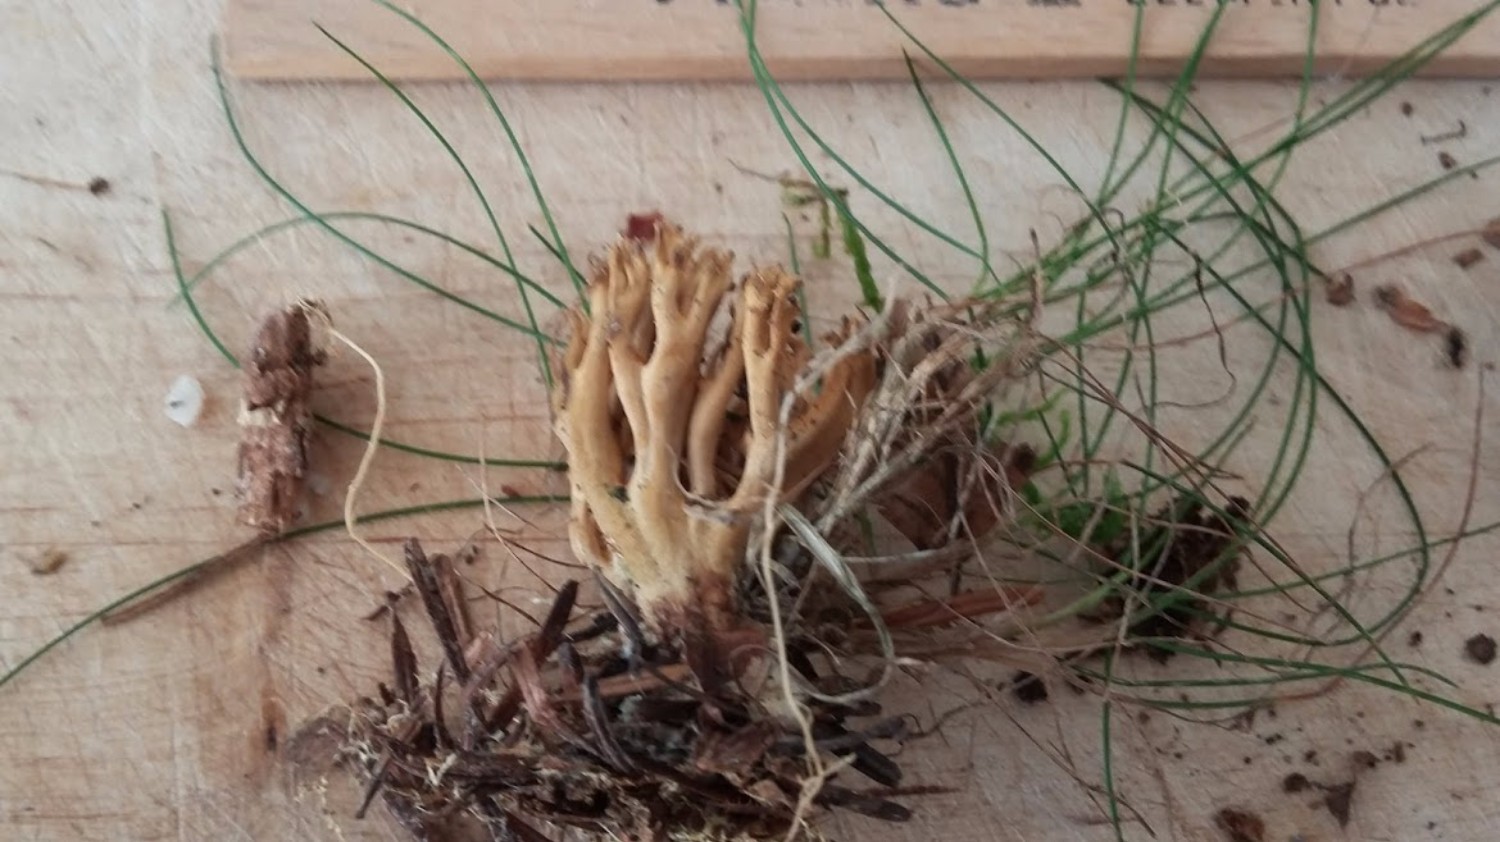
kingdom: Fungi
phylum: Basidiomycota
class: Agaricomycetes
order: Gomphales
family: Gomphaceae
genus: Phaeoclavulina
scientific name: Phaeoclavulina eumorpha
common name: gran-koralsvamp
